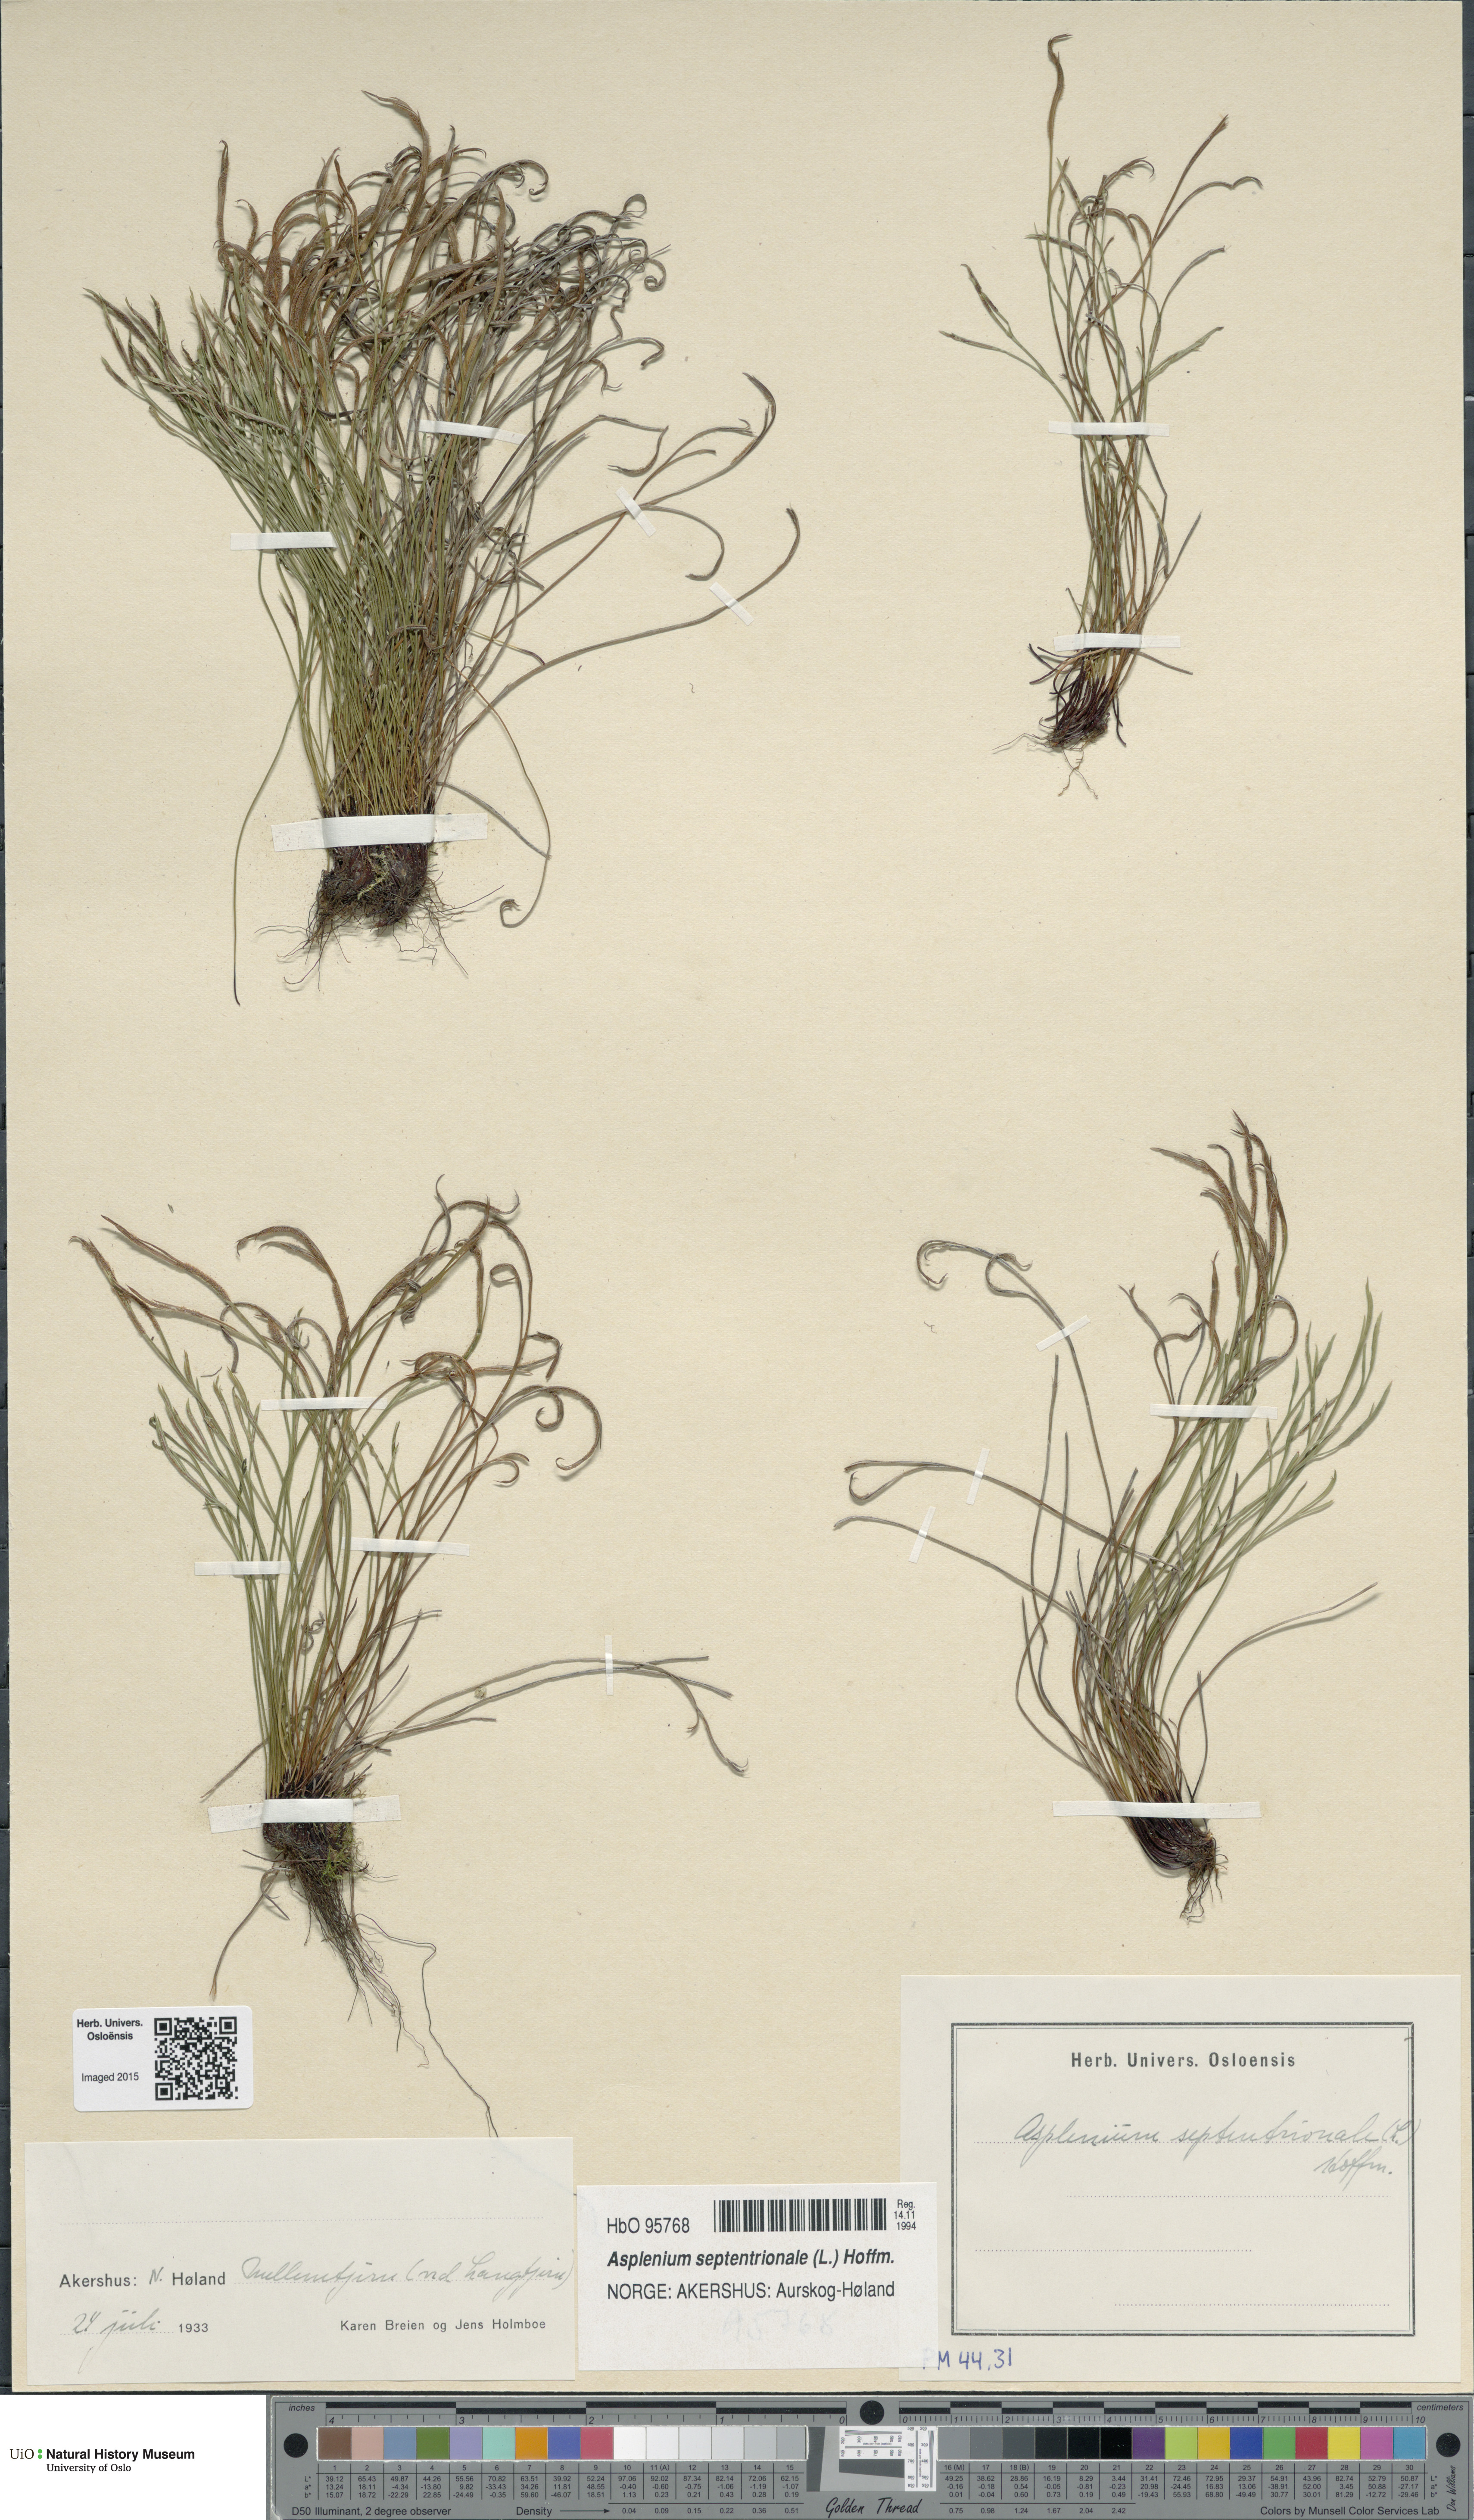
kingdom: Plantae
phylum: Tracheophyta
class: Polypodiopsida
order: Polypodiales
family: Aspleniaceae
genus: Asplenium
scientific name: Asplenium septentrionale
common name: Forked spleenwort
